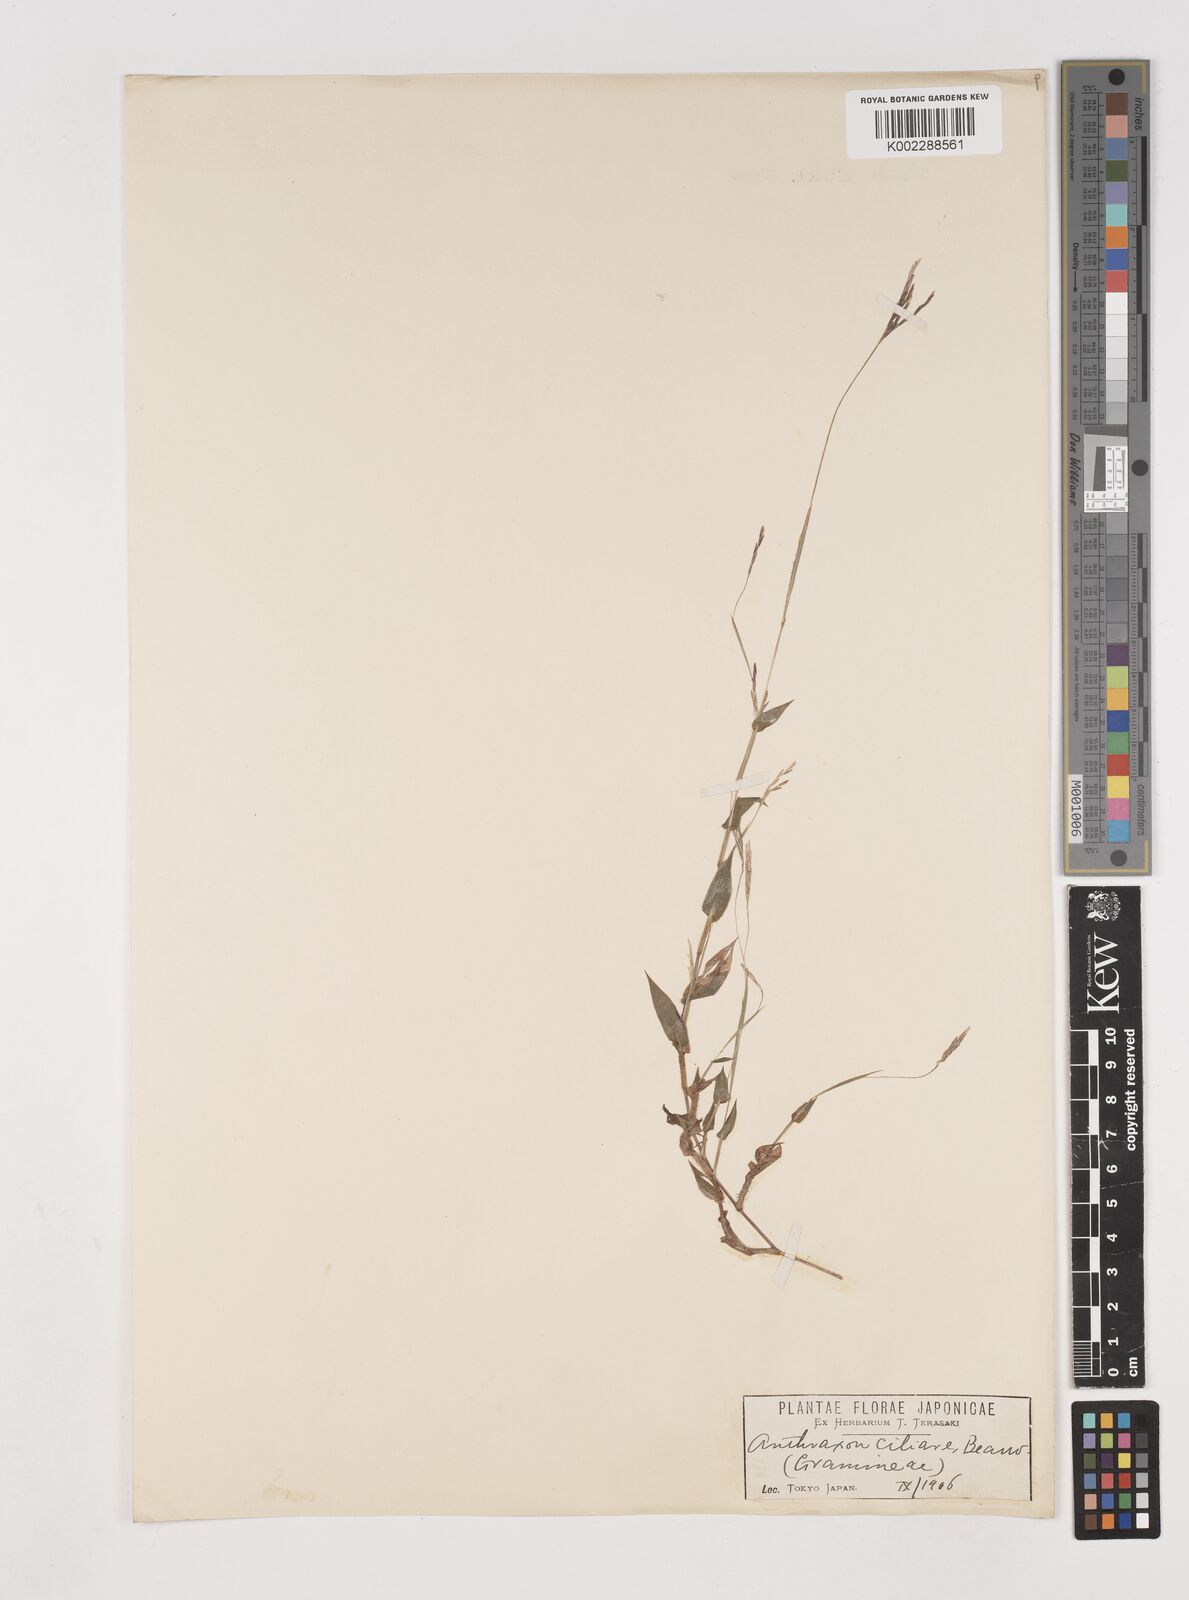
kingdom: Plantae
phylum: Tracheophyta
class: Liliopsida
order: Poales
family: Poaceae
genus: Arthraxon
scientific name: Arthraxon hispidus
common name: Small carpgrass
